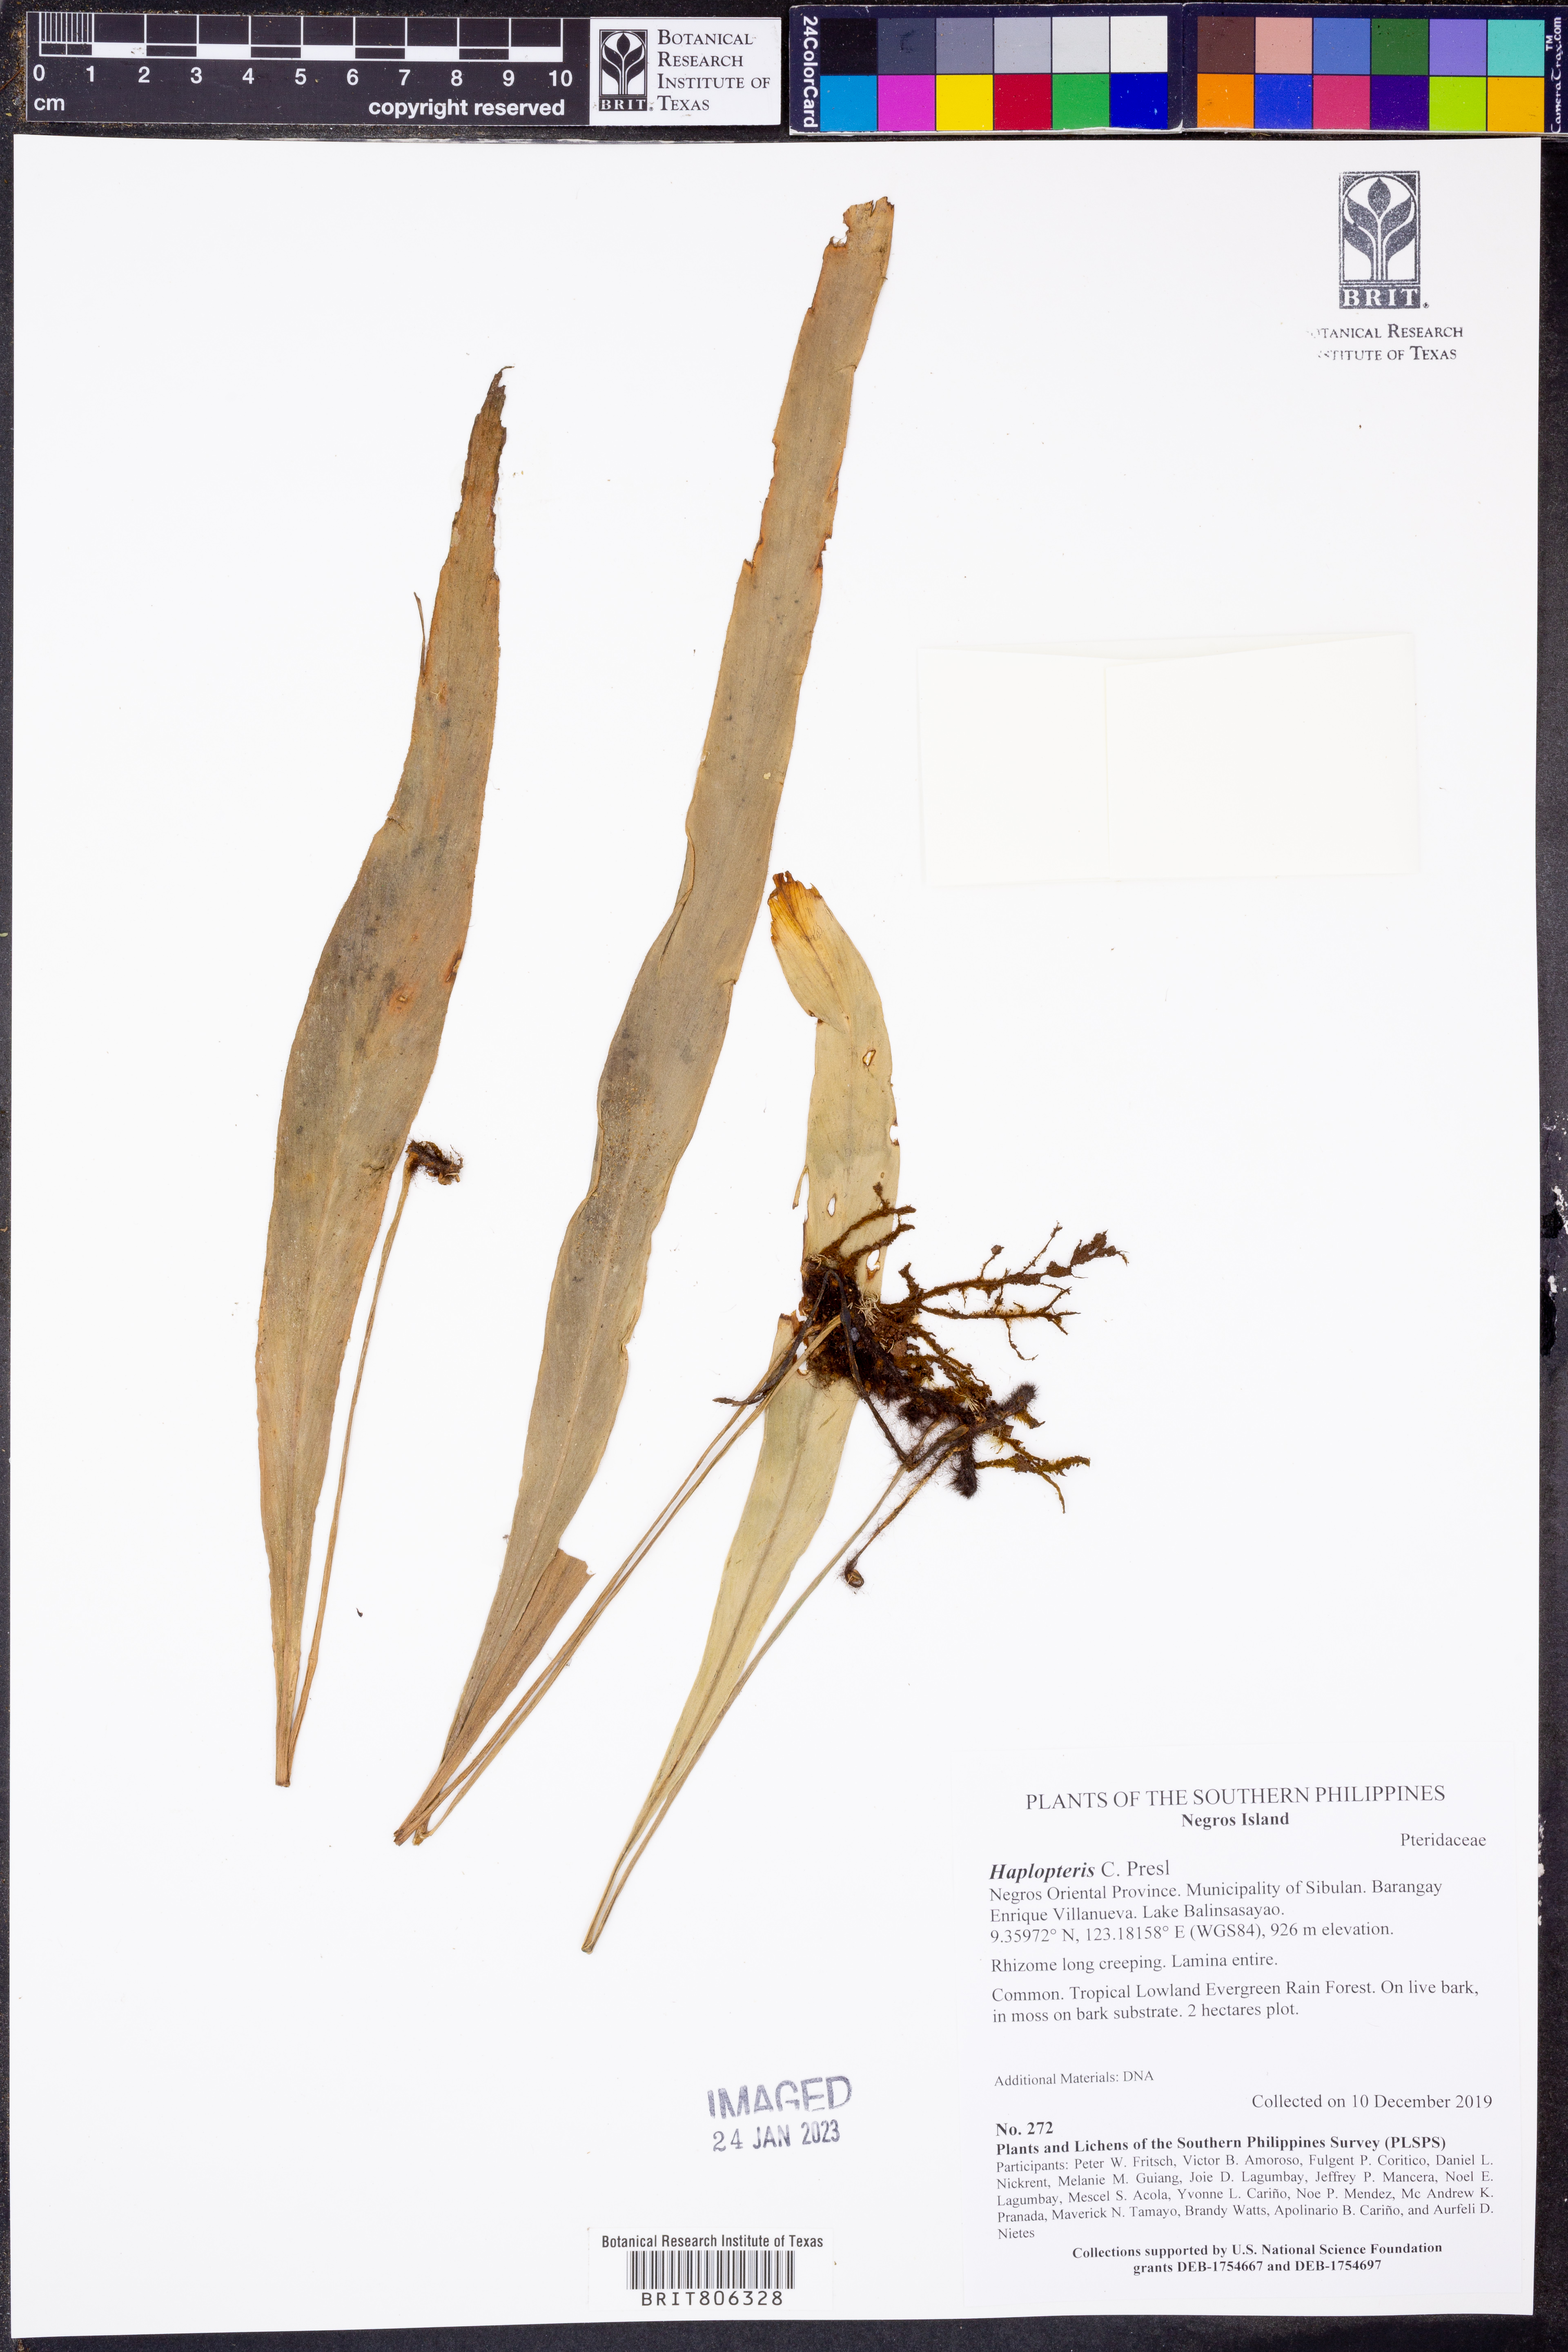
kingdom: Plantae
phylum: Tracheophyta
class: Polypodiopsida
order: Polypodiales
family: Pteridaceae
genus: Haplopteris
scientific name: Haplopteris
